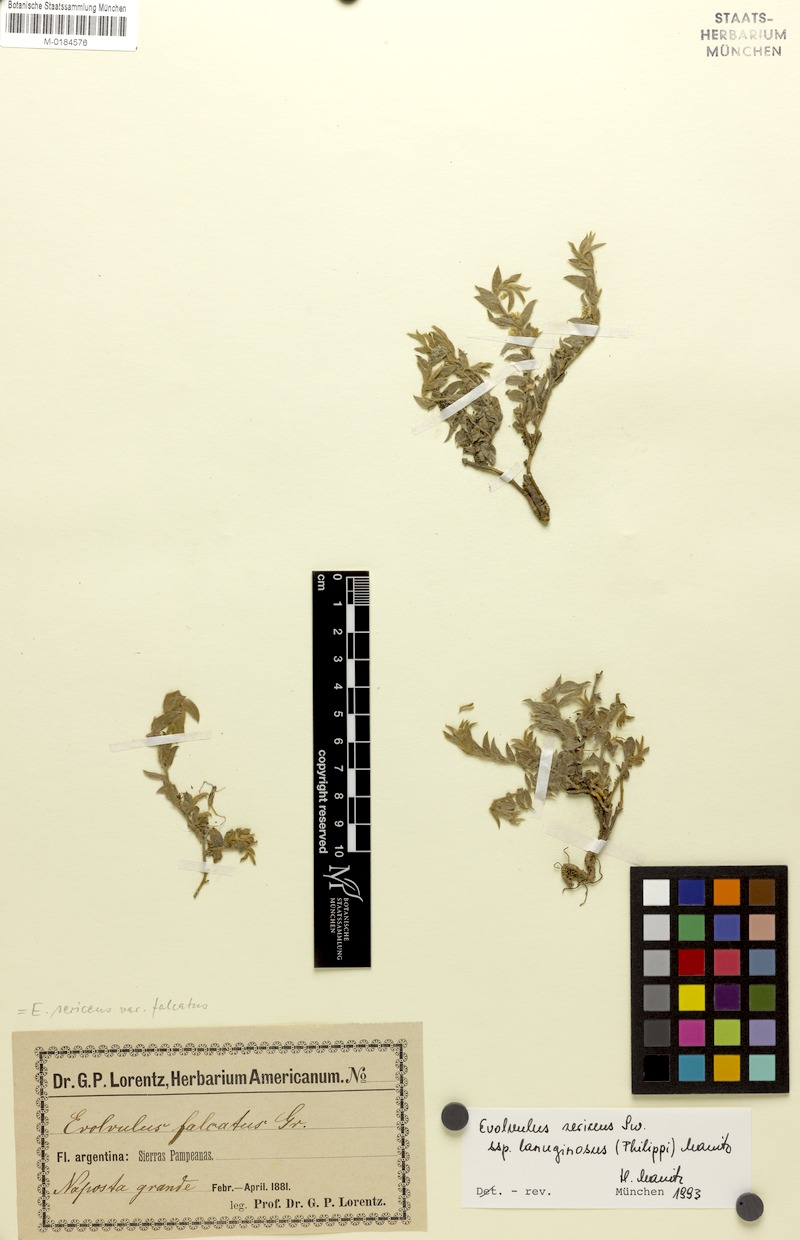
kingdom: Plantae
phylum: Tracheophyta
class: Magnoliopsida
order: Solanales
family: Convolvulaceae
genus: Evolvulus
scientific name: Evolvulus sericeus
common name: Blue dots
